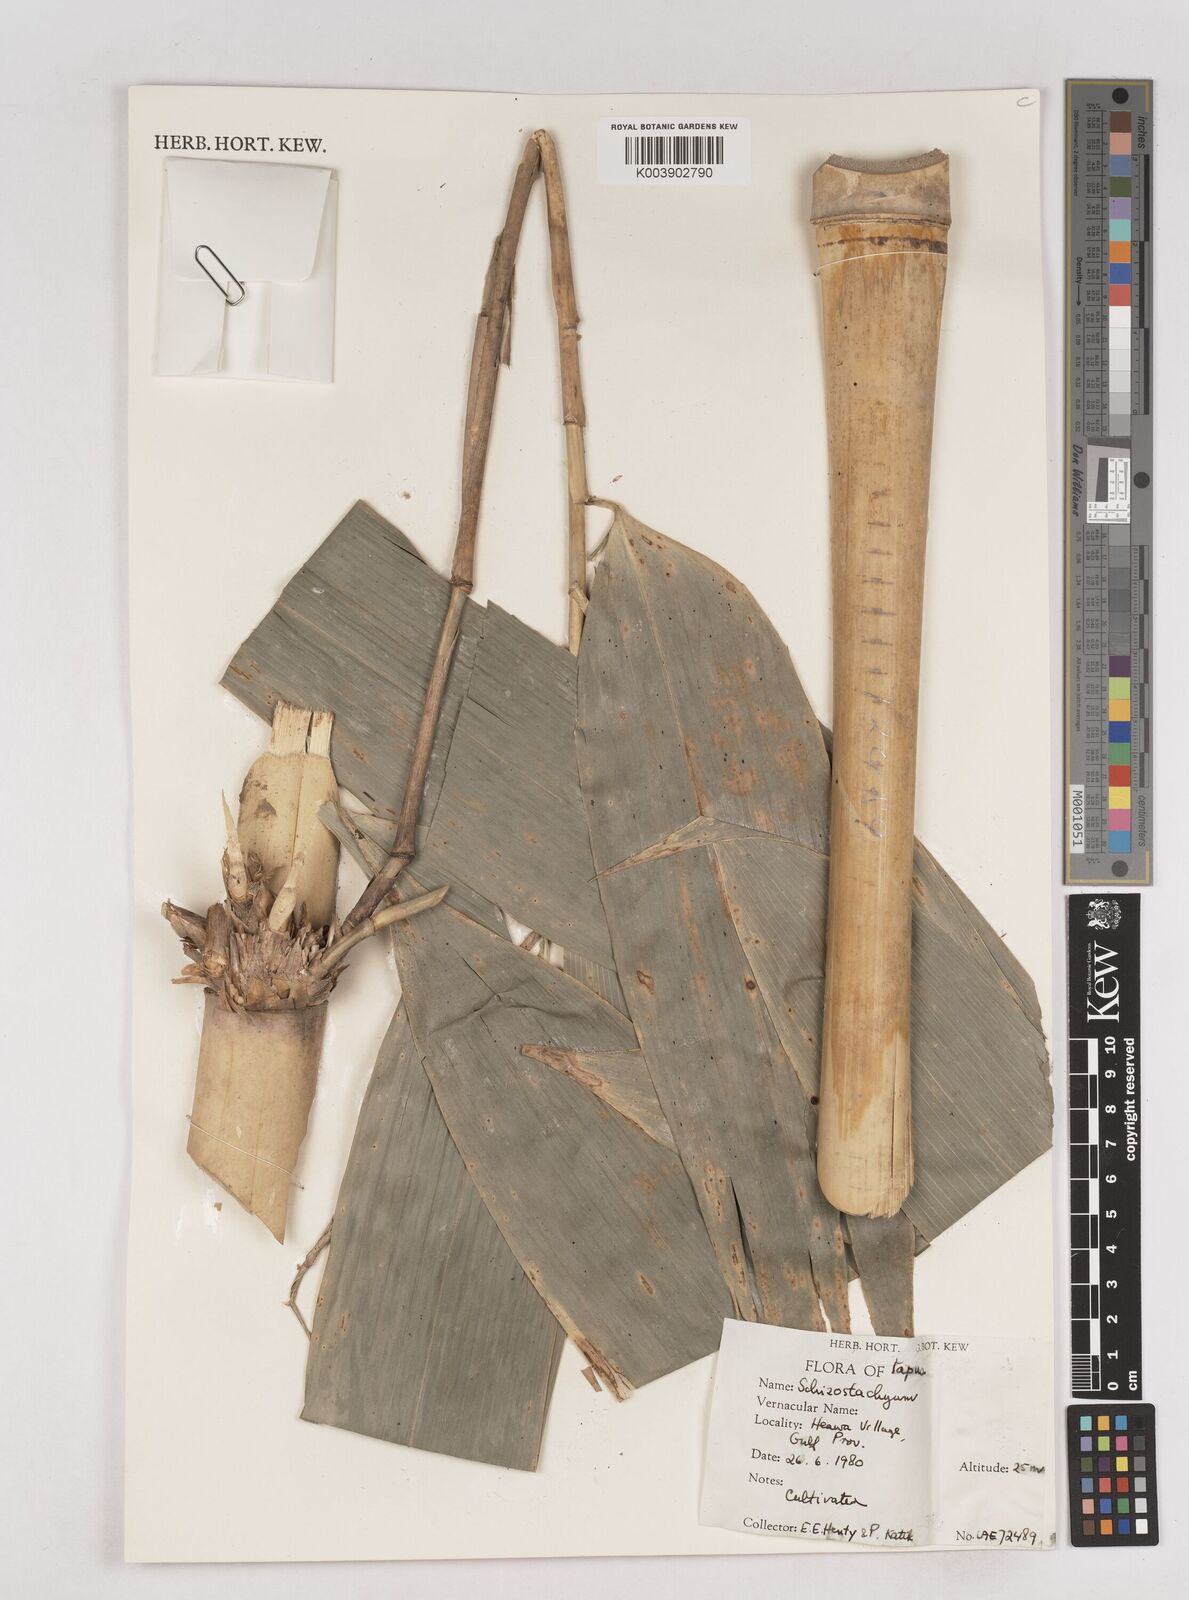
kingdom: Plantae
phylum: Tracheophyta
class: Liliopsida
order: Poales
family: Poaceae
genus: Schizostachyum
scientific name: Schizostachyum
